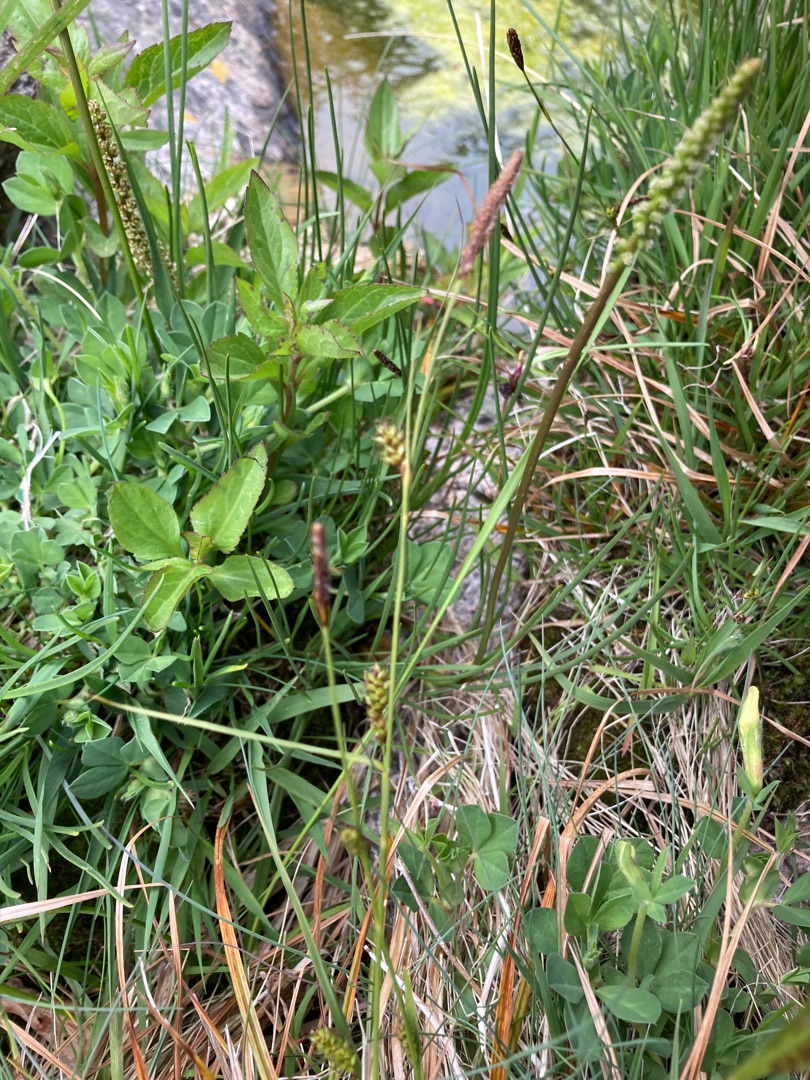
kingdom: Plantae
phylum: Tracheophyta
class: Liliopsida
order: Poales
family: Cyperaceae
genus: Carex
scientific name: Carex distans
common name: Fjernakset star
